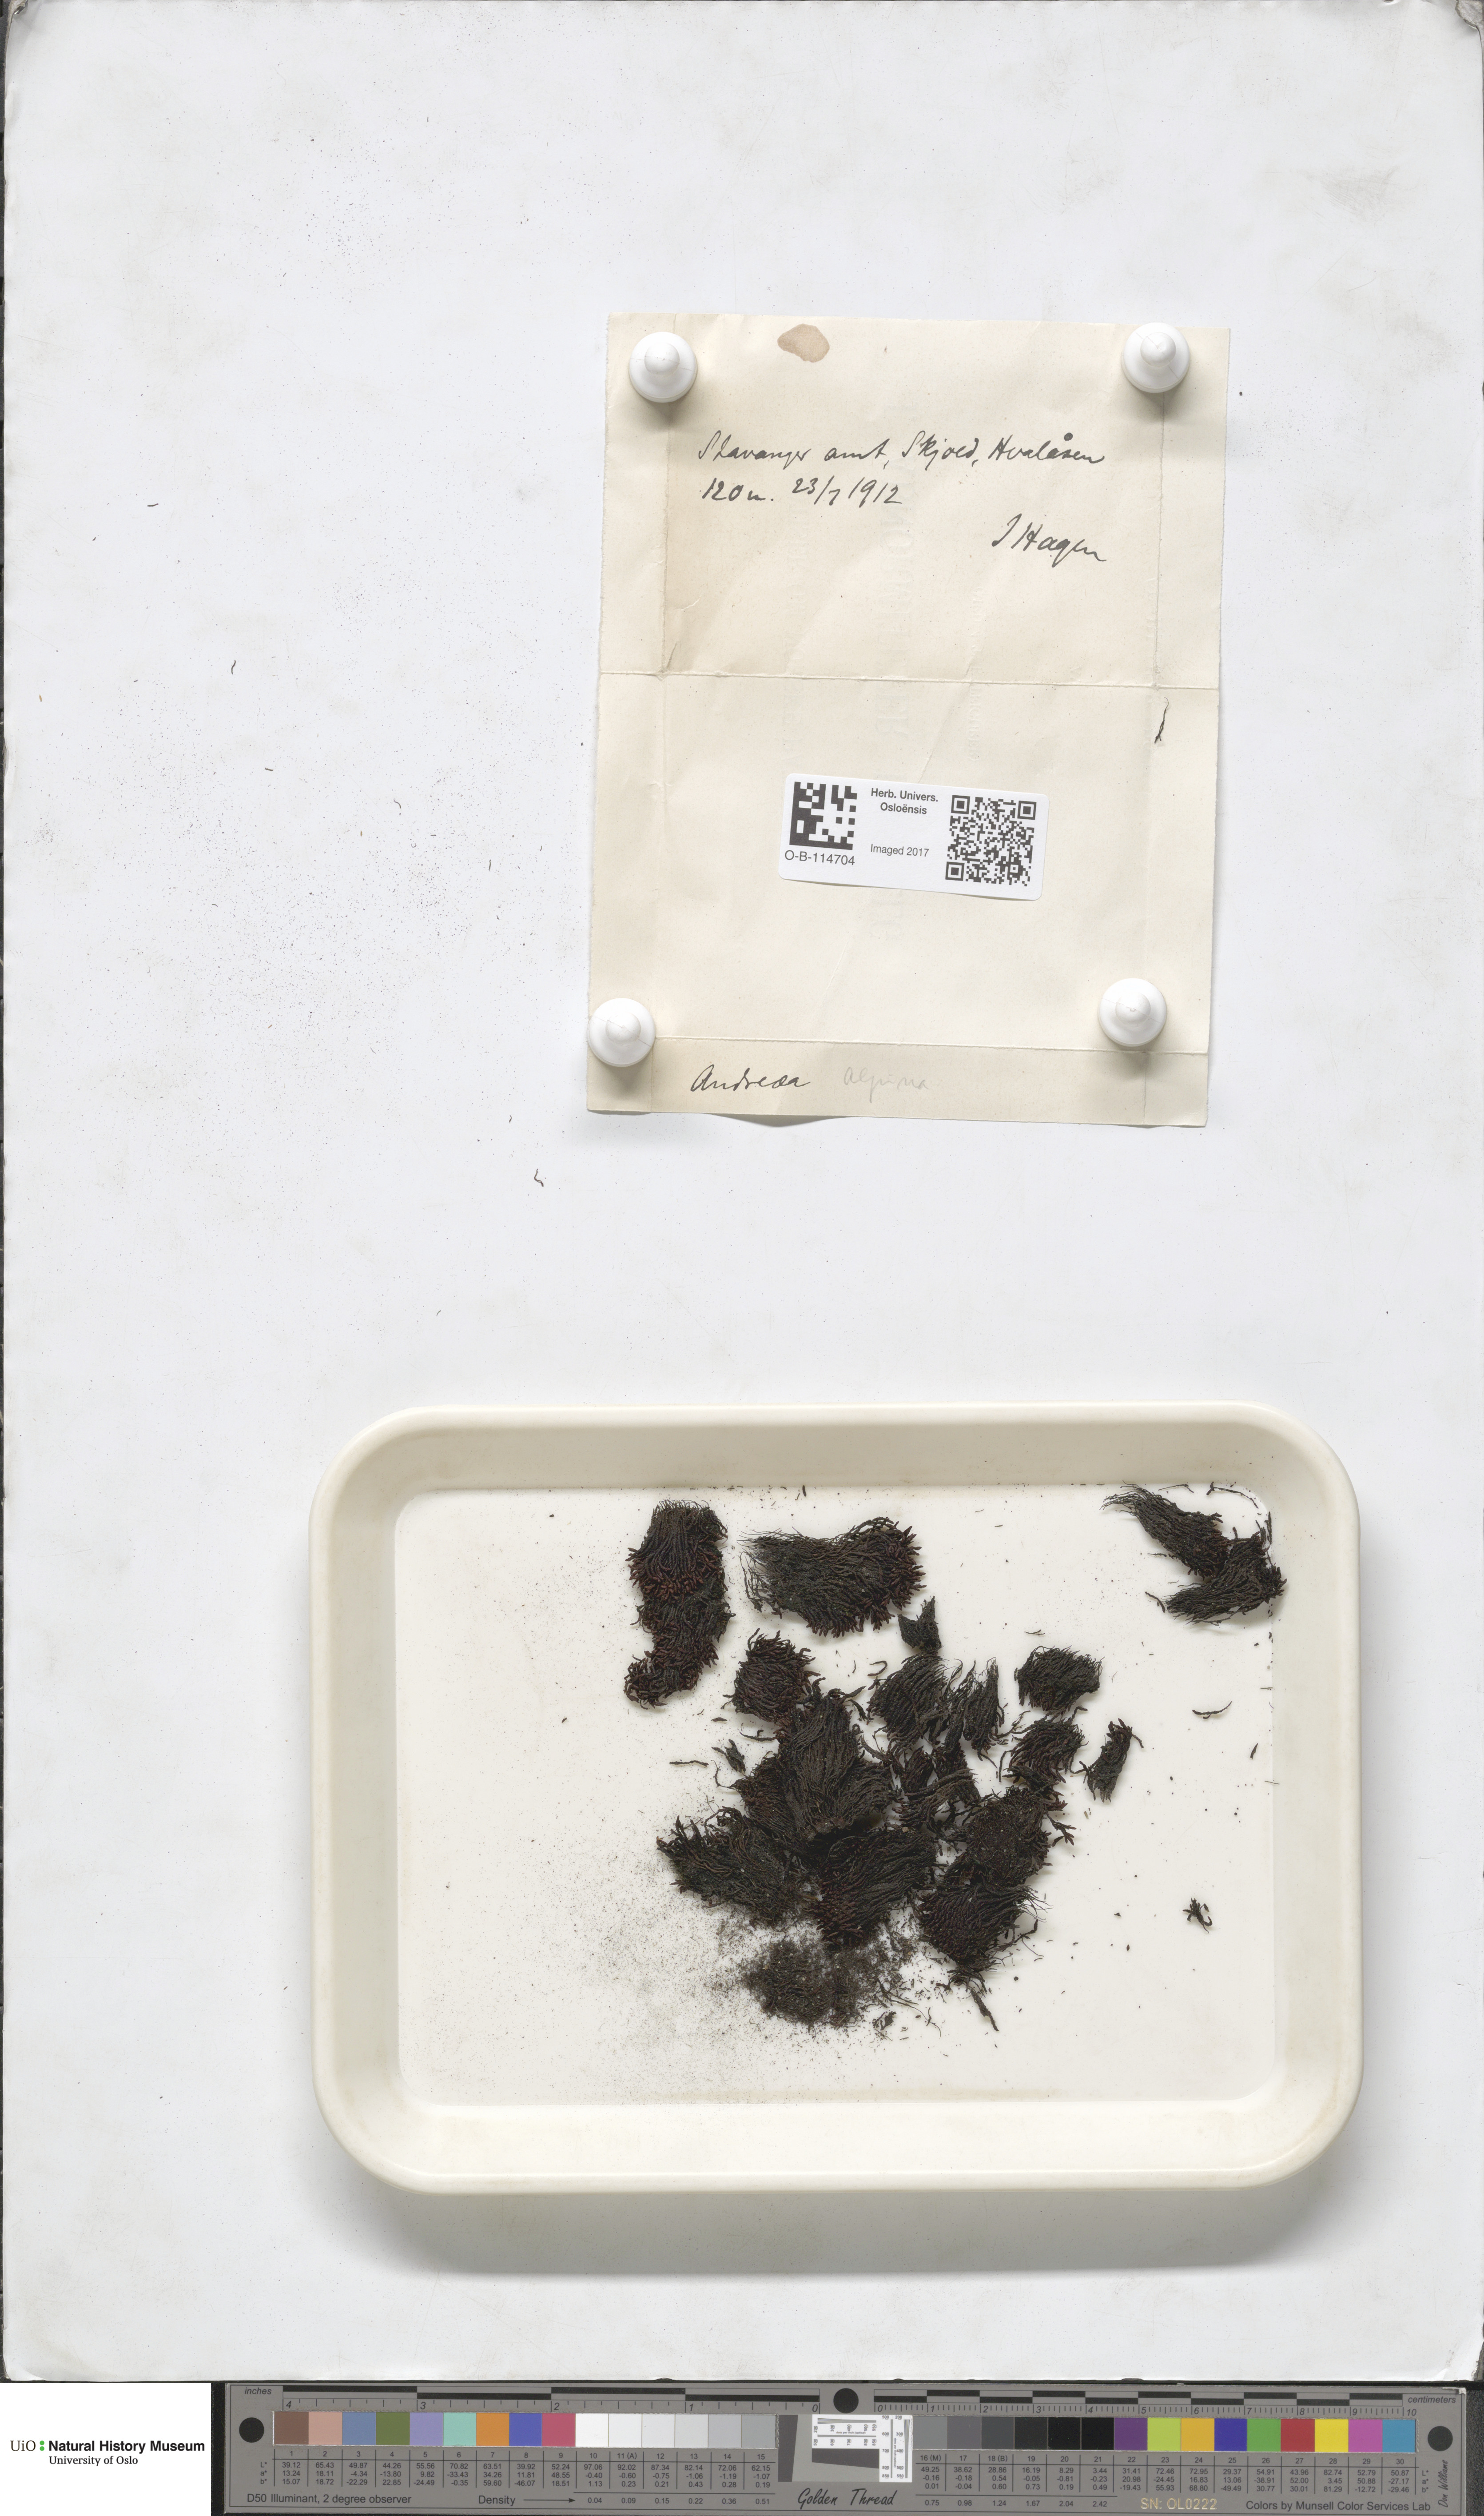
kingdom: Plantae
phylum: Bryophyta
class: Andreaeopsida
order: Andreaeales
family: Andreaeaceae
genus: Andreaea
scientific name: Andreaea hookeri
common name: Alpine rock-moss
